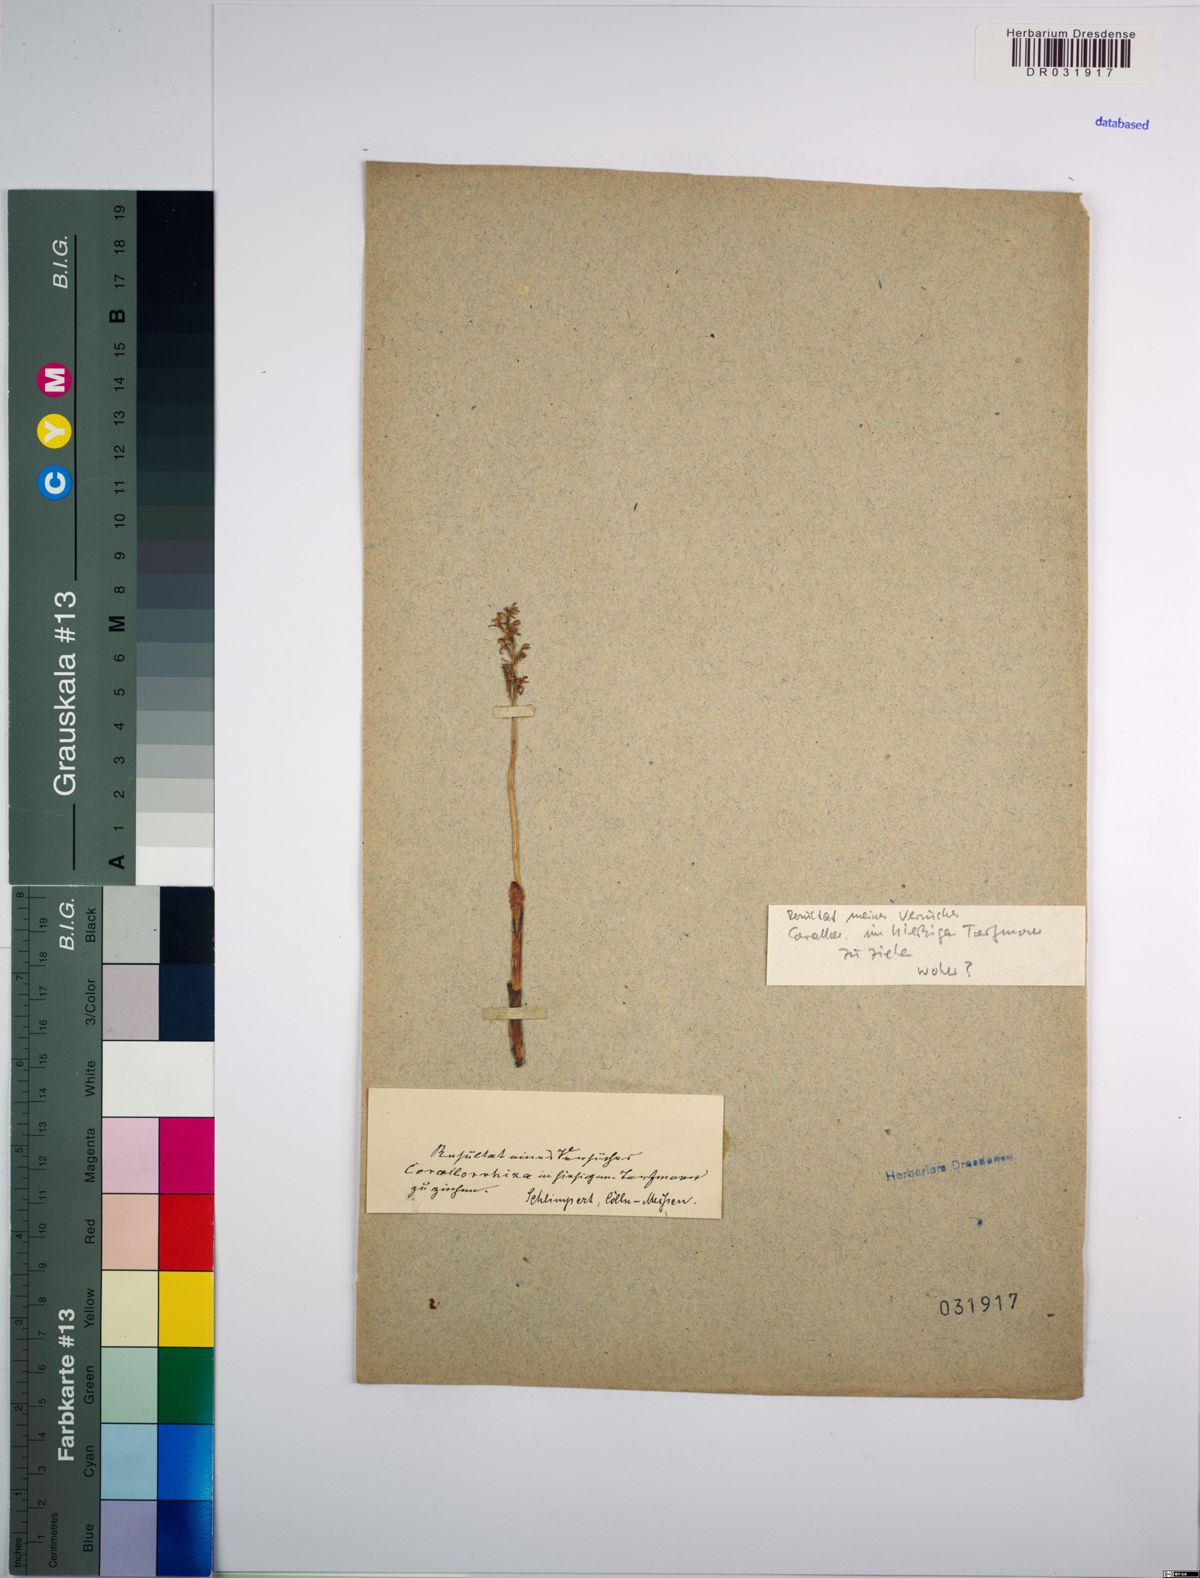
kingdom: Plantae
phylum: Tracheophyta
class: Liliopsida
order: Asparagales
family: Orchidaceae
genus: Corallorhiza
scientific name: Corallorhiza trifida
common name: Yellow coralroot
